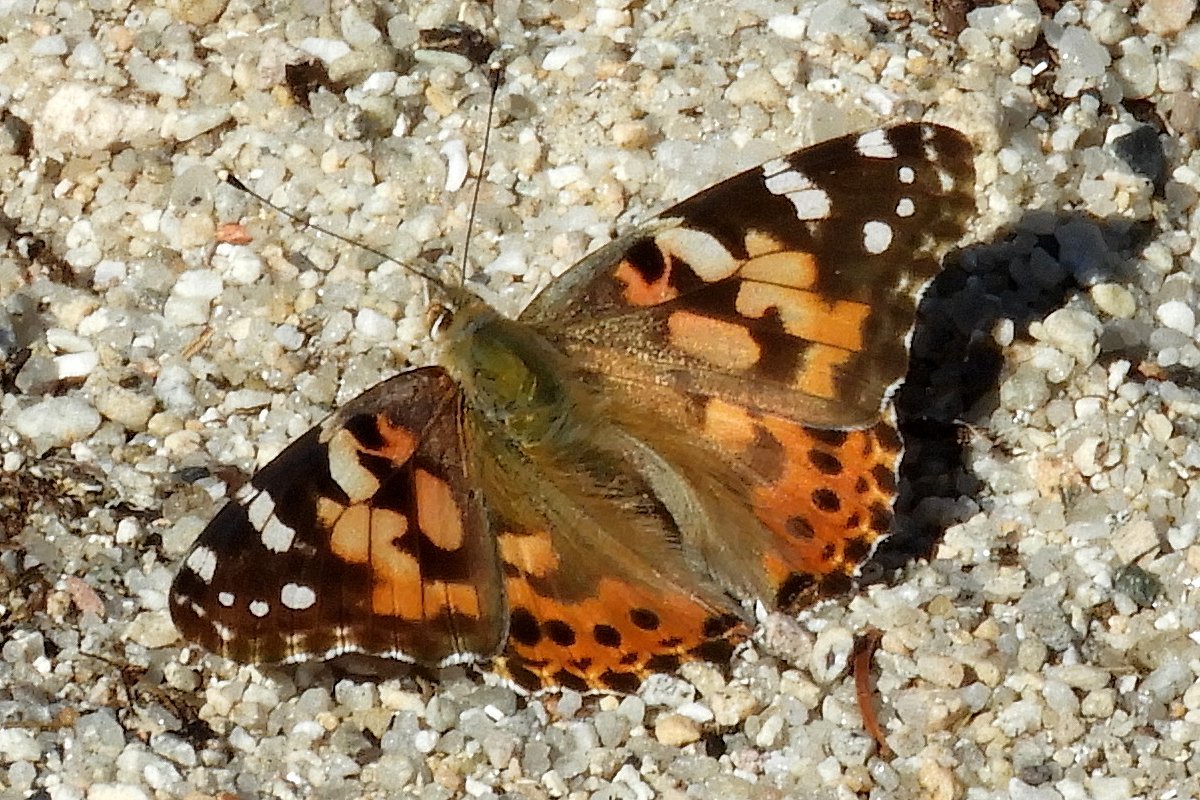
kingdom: Animalia
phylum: Arthropoda
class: Insecta
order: Lepidoptera
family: Nymphalidae
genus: Vanessa
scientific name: Vanessa cardui
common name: Painted Lady
